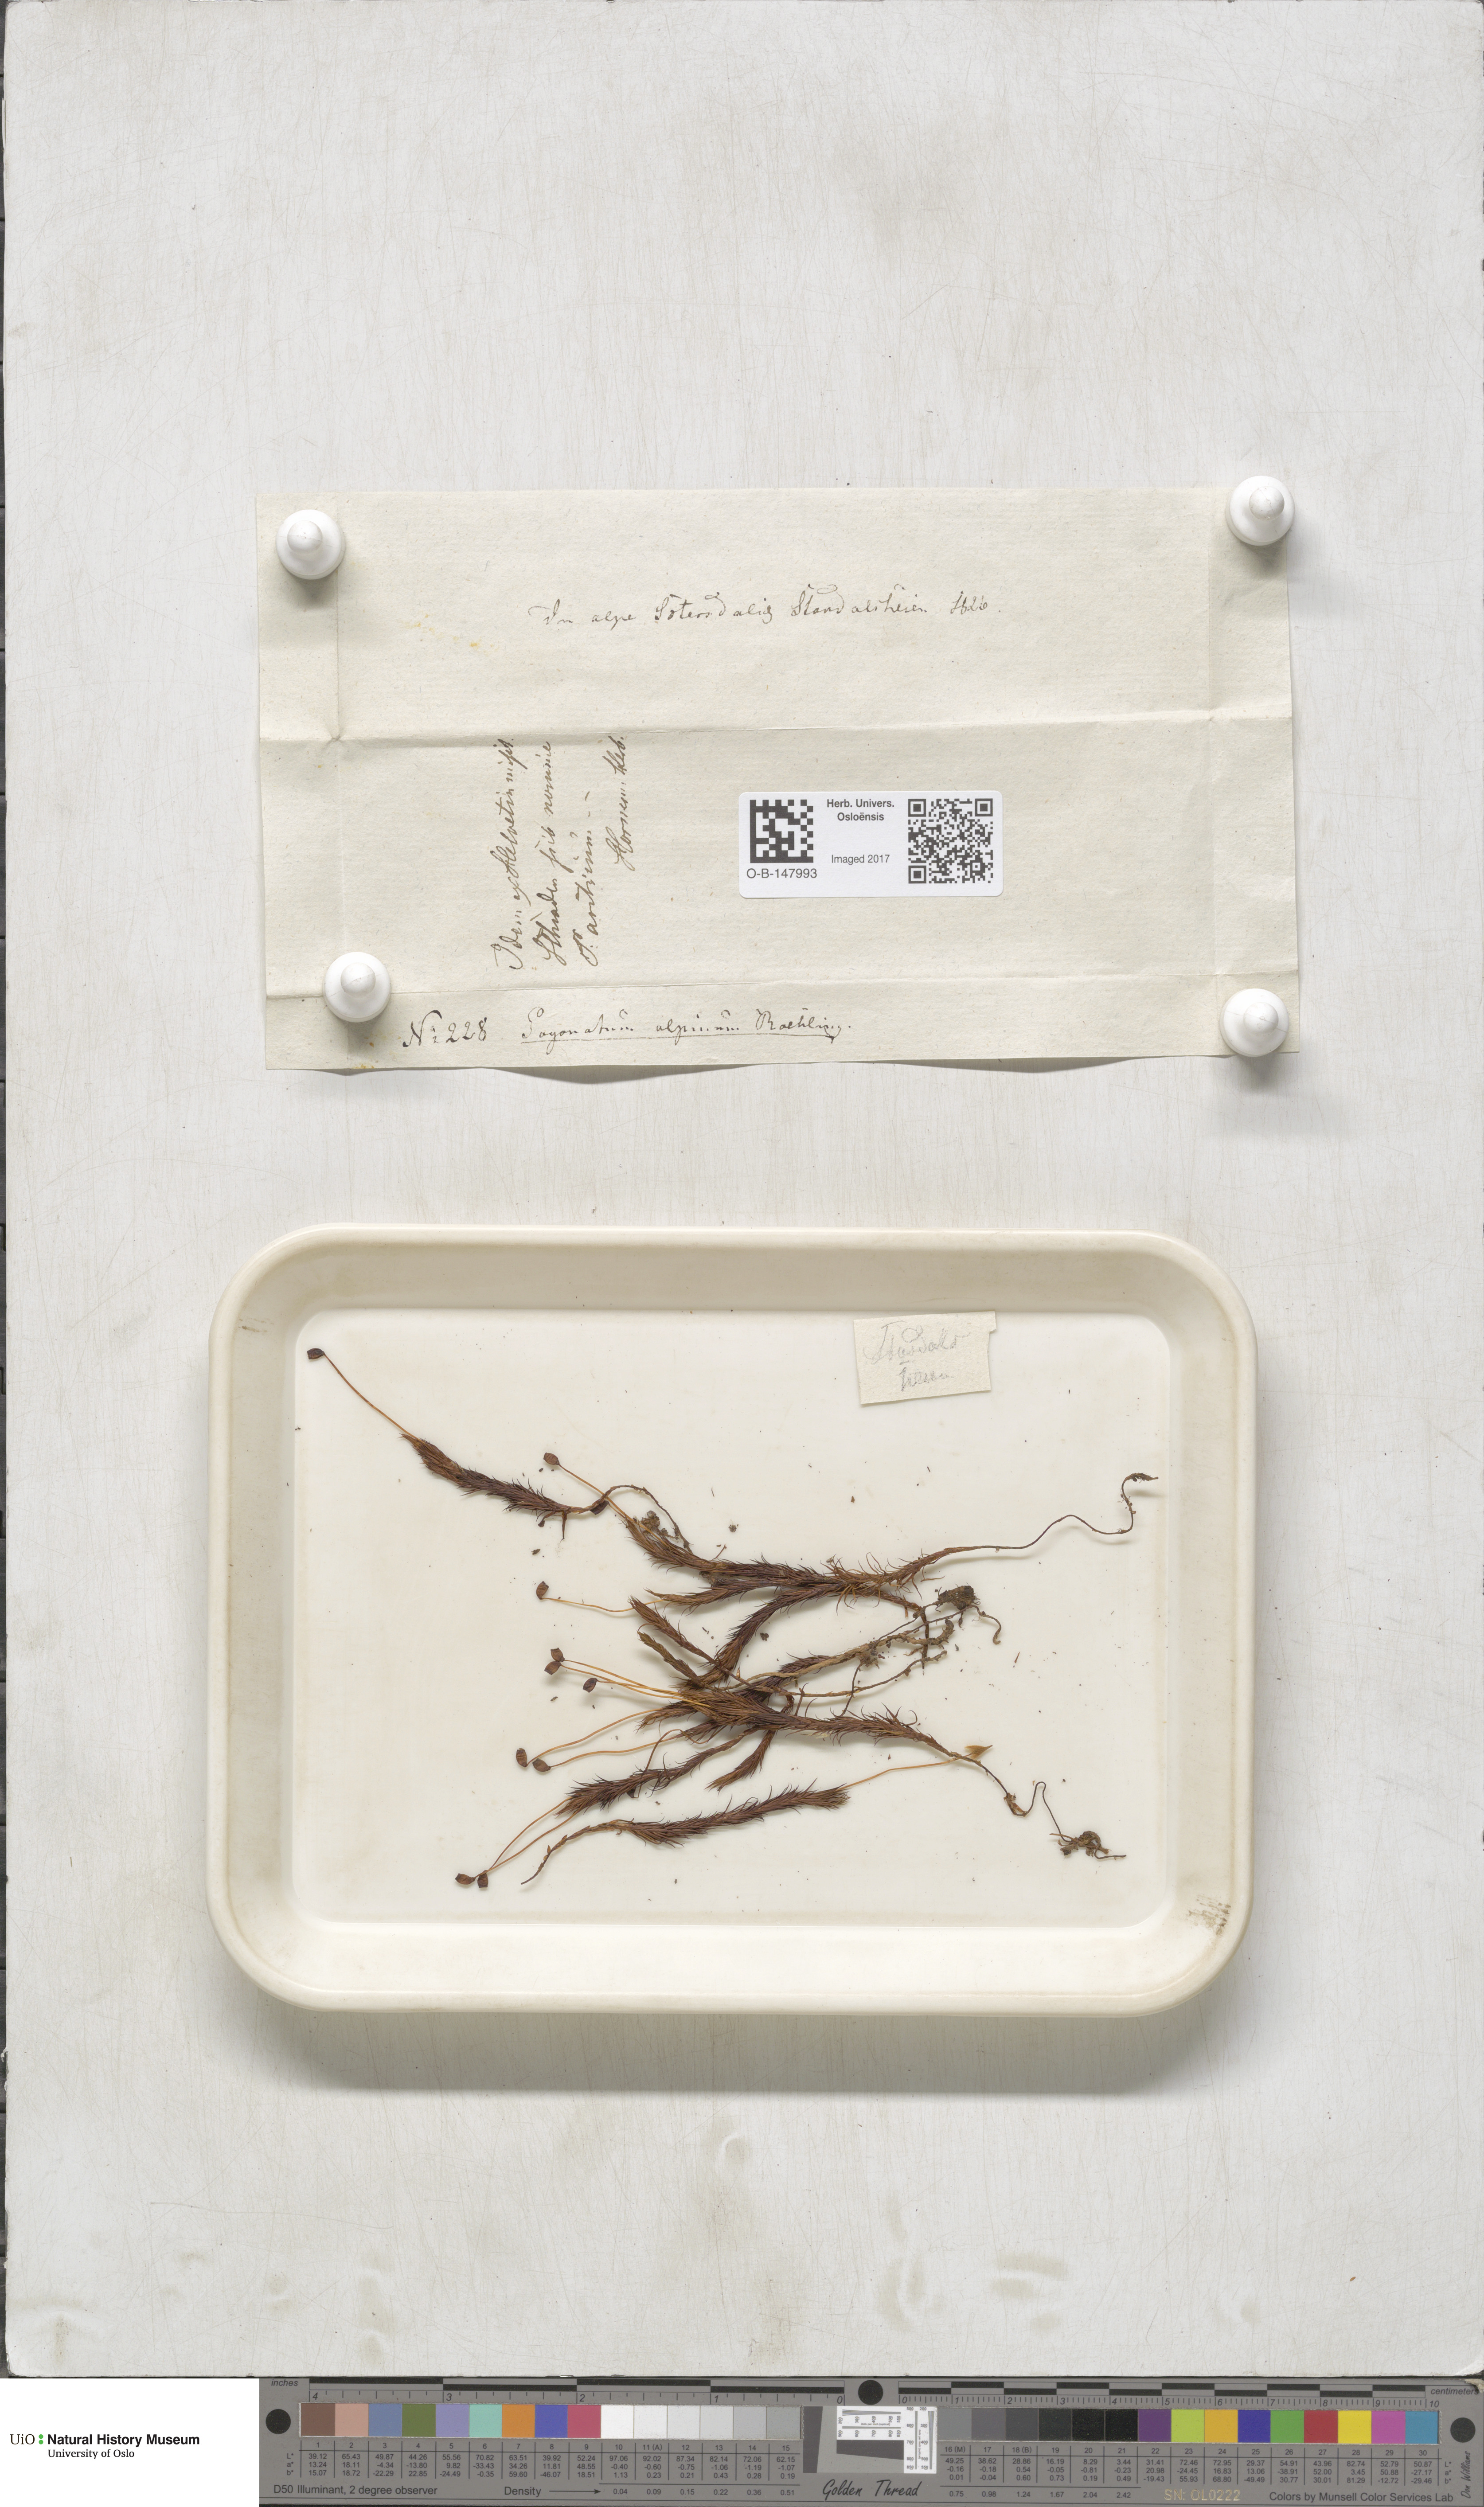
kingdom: Plantae
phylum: Bryophyta
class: Polytrichopsida
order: Polytrichales
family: Polytrichaceae
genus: Polytrichastrum
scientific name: Polytrichastrum alpinum
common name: Alpine haircap
